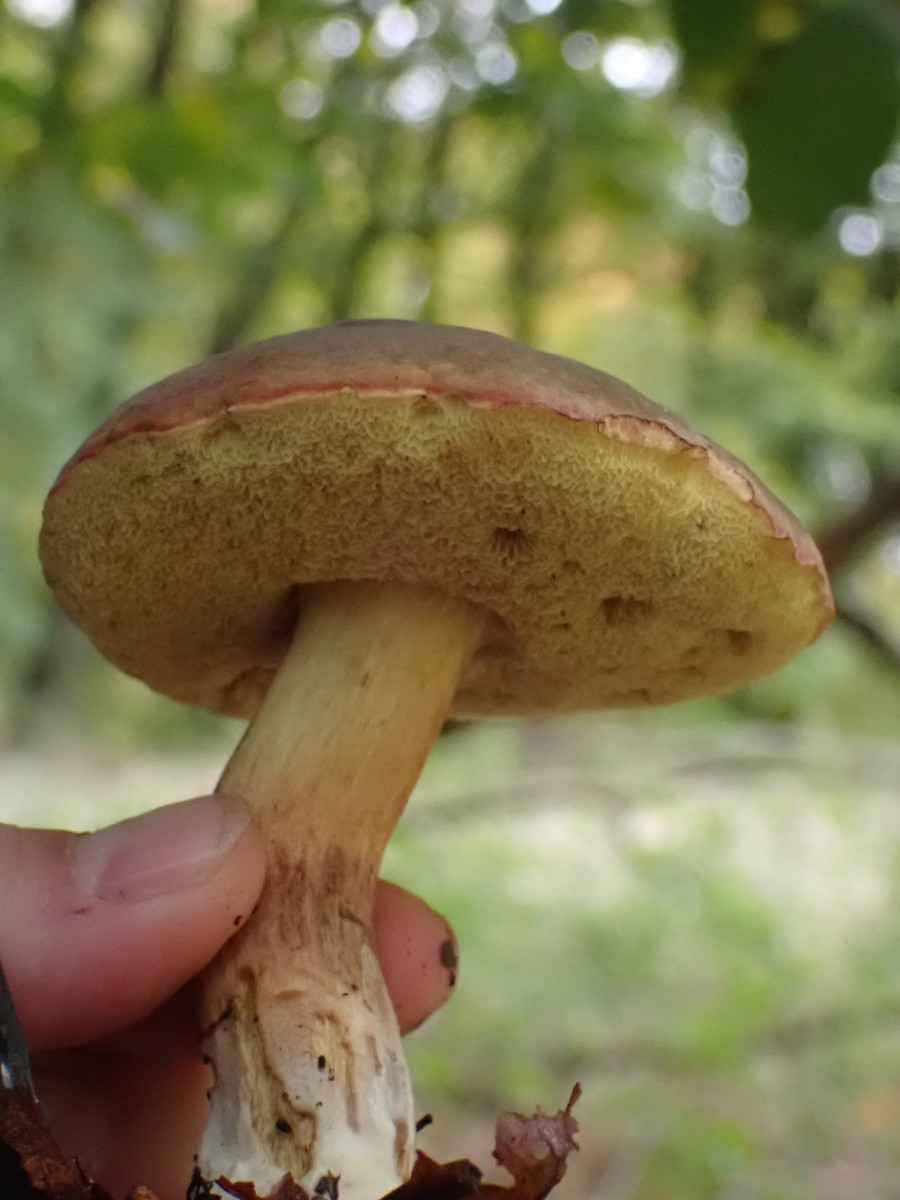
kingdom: Fungi
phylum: Basidiomycota
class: Agaricomycetes
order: Boletales
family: Boletaceae
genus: Xerocomellus
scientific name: Xerocomellus pruinatus
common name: dugget rørhat
